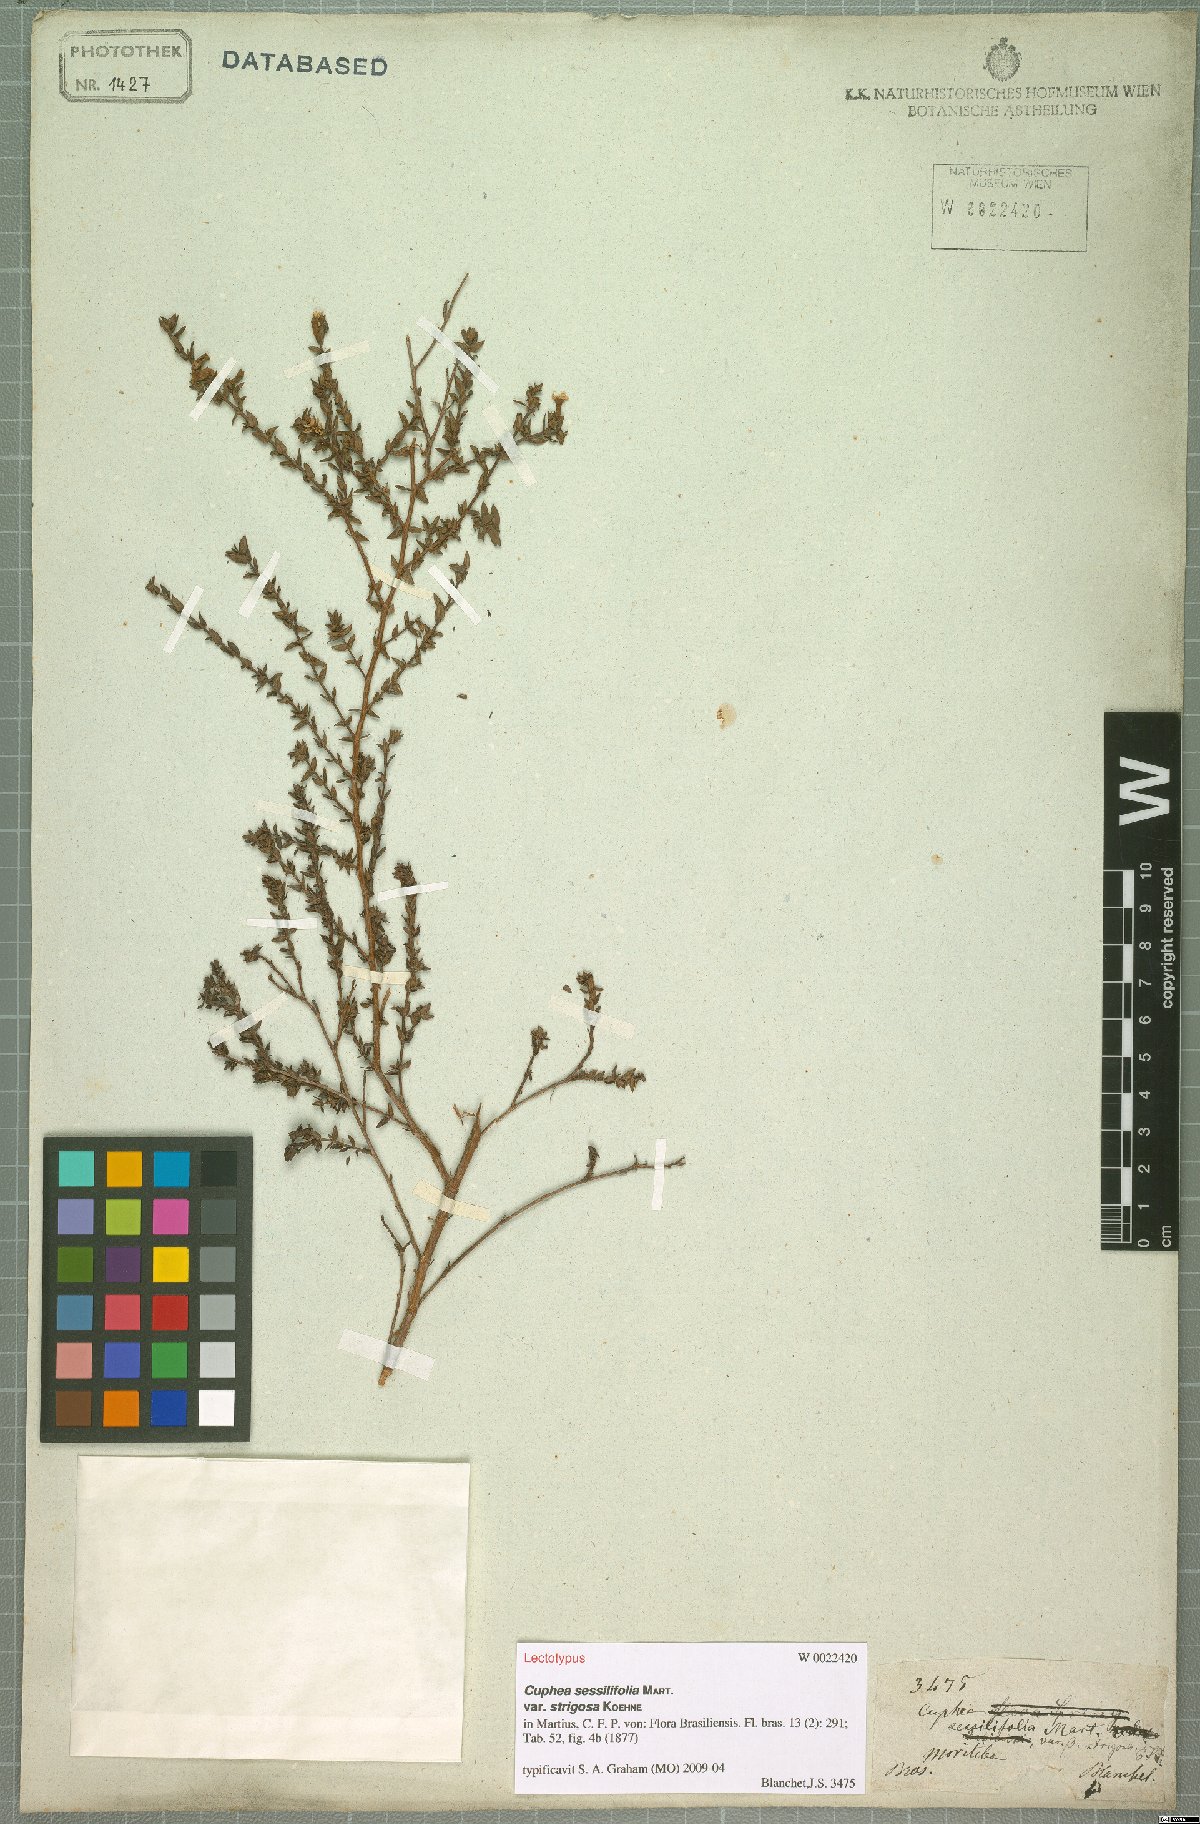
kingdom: Plantae
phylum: Tracheophyta
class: Magnoliopsida
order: Myrtales
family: Lythraceae
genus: Cuphea
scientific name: Cuphea sessilifolia
